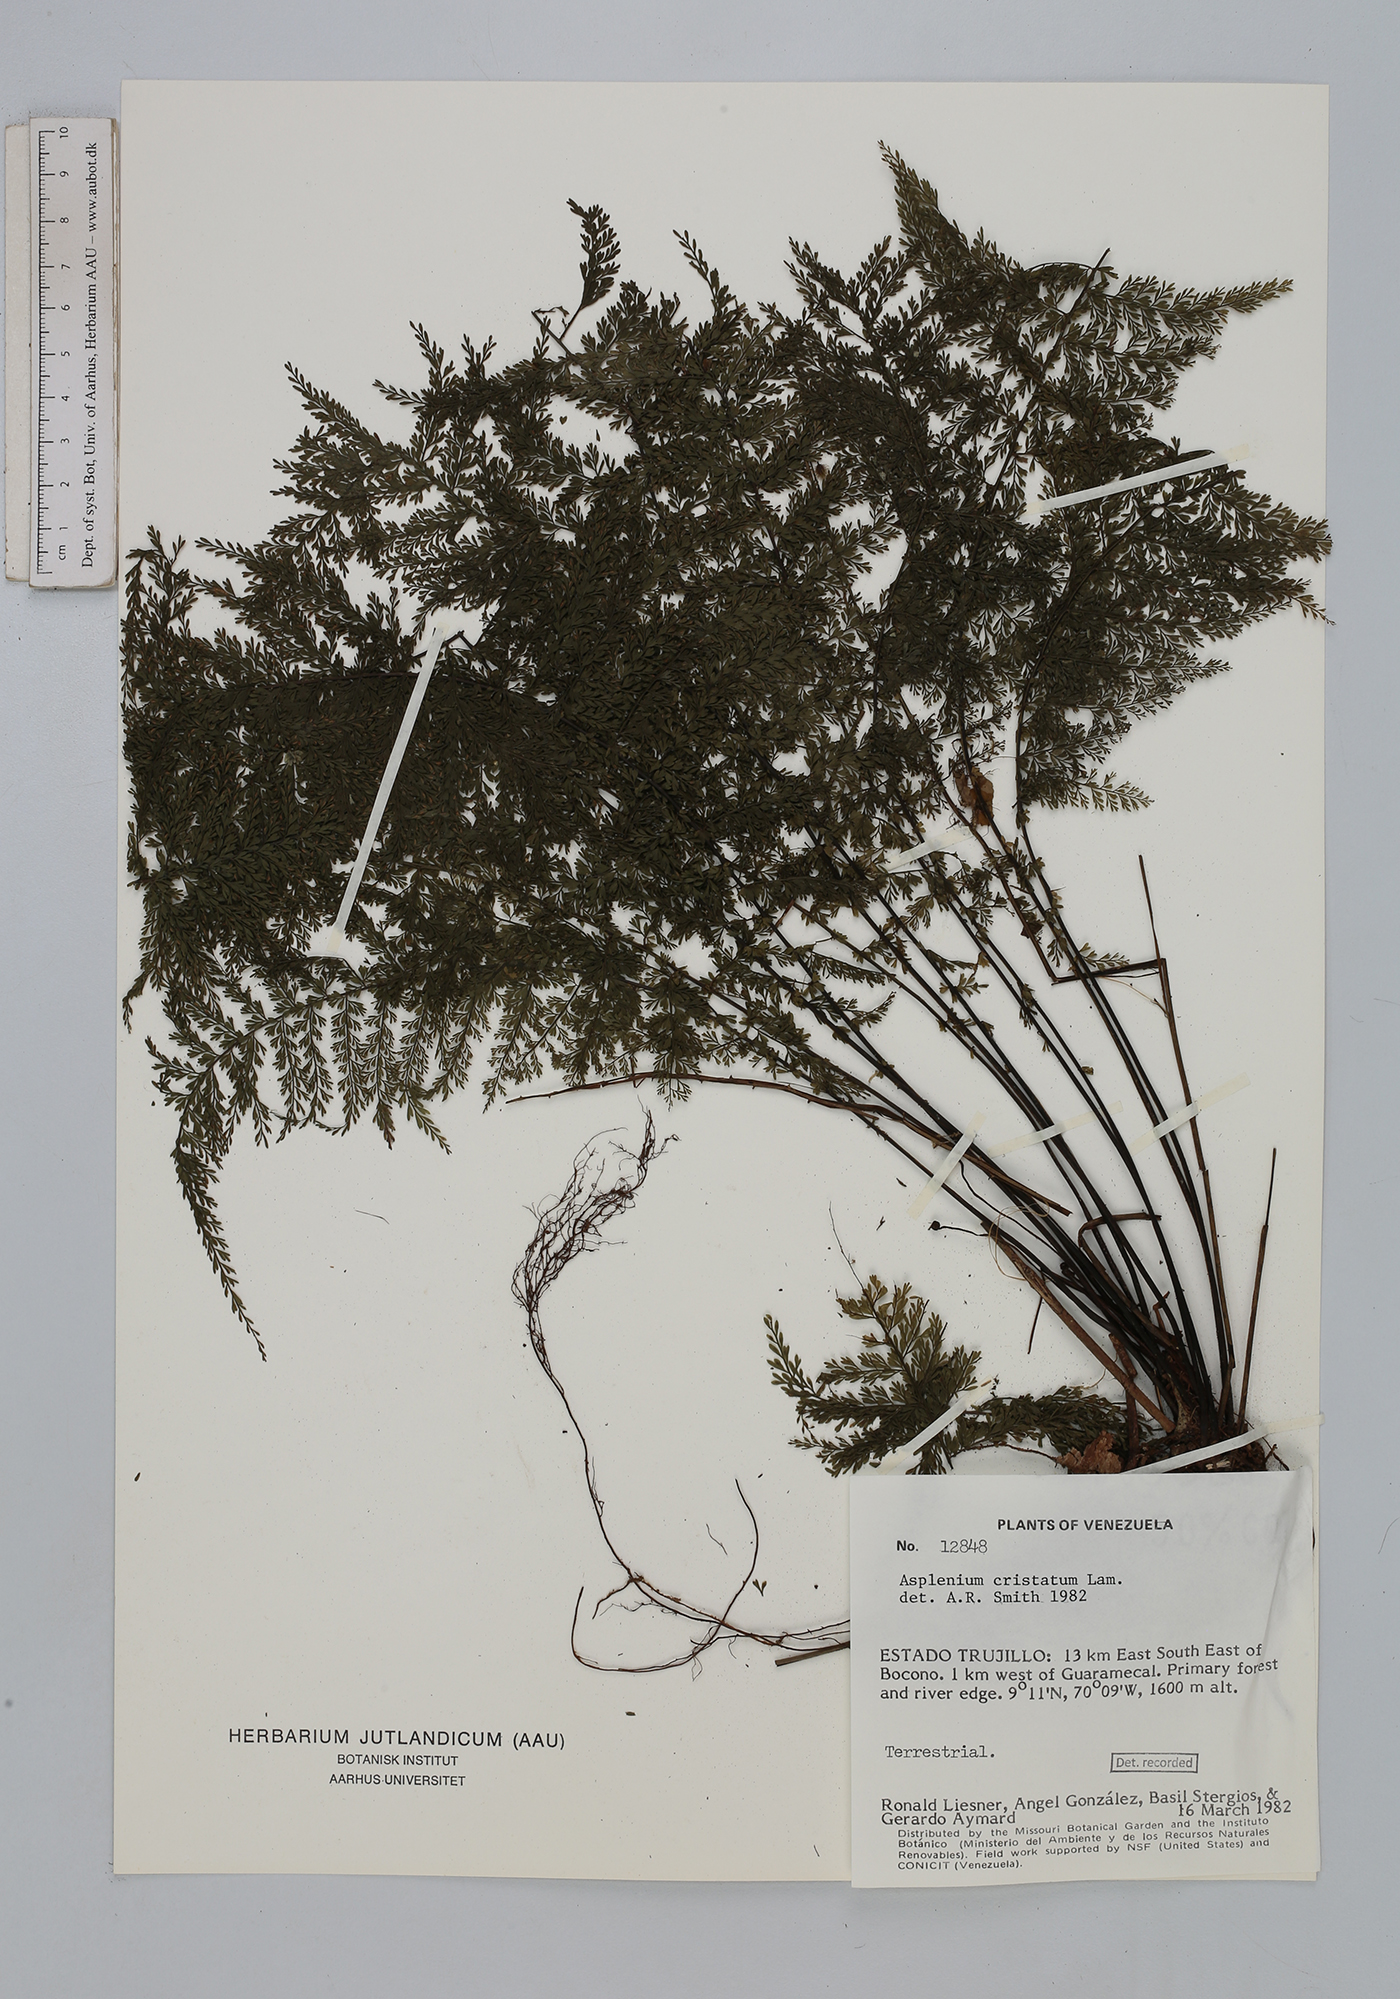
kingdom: Plantae
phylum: Tracheophyta
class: Polypodiopsida
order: Polypodiales
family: Aspleniaceae
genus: Asplenium
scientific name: Asplenium cristatum
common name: Parsley spleenwort
